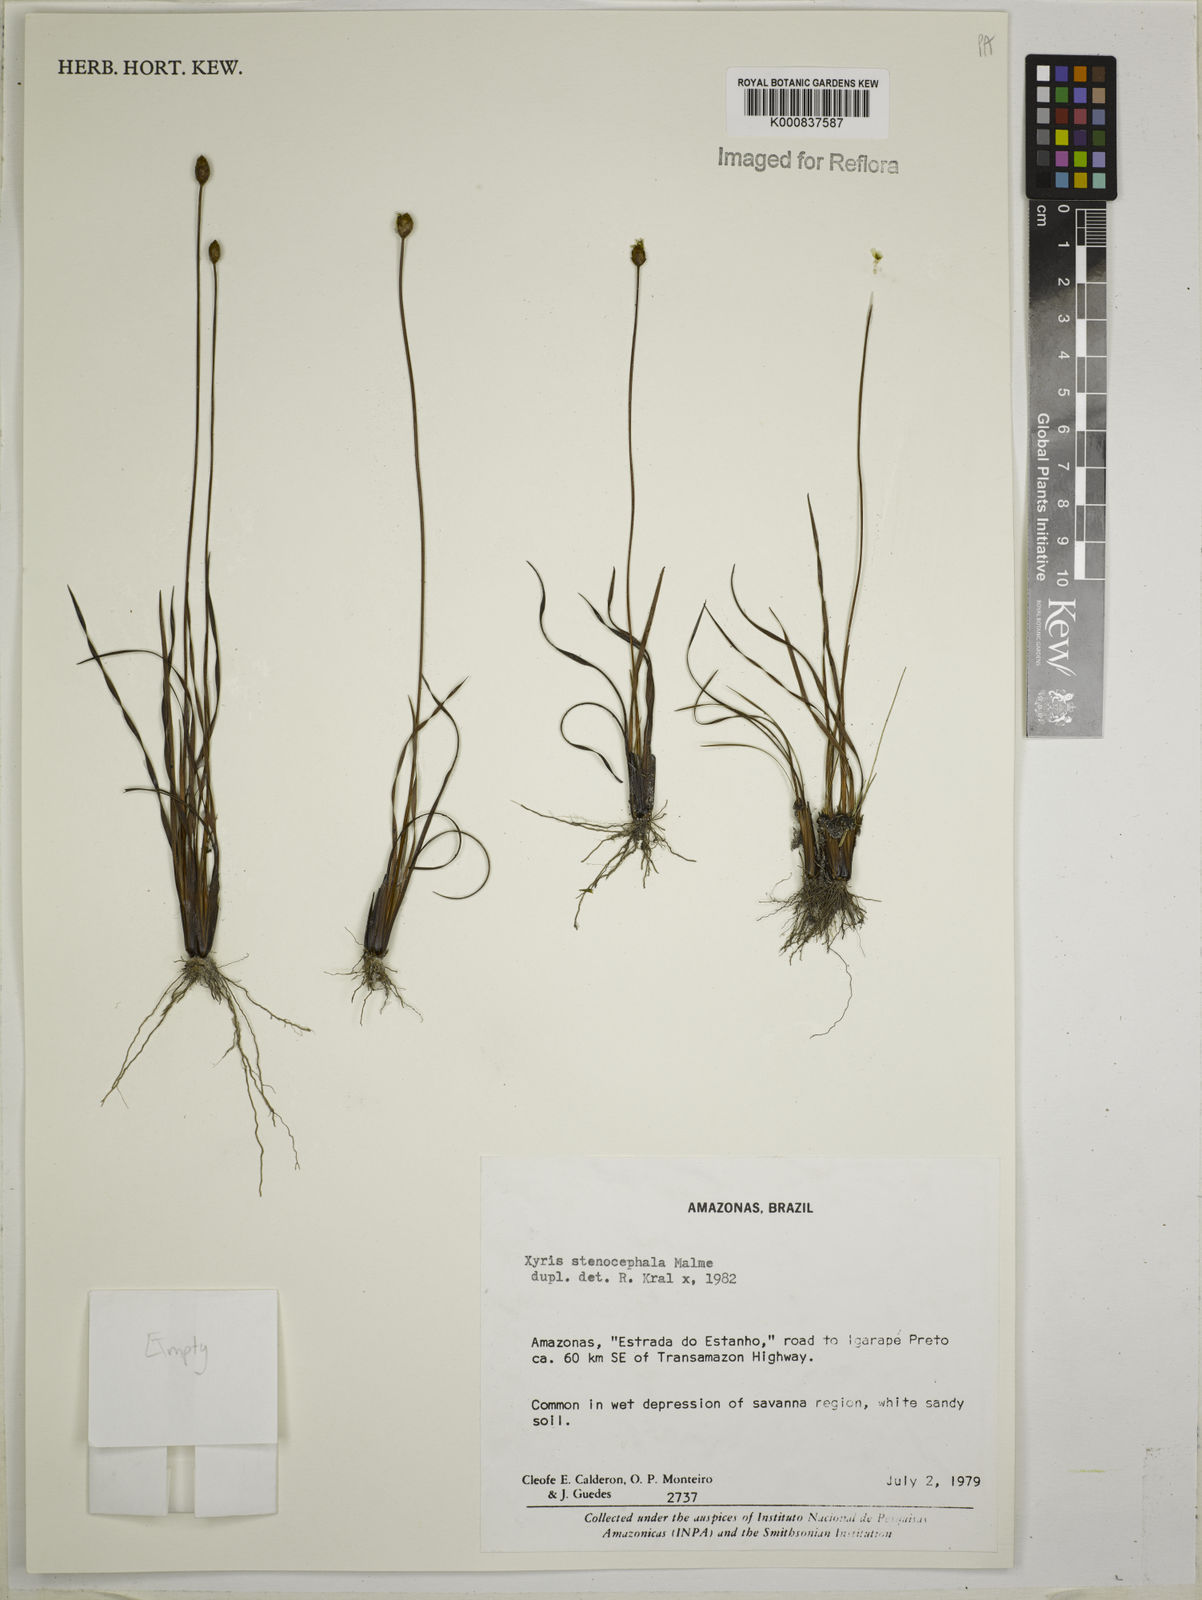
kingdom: Plantae
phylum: Tracheophyta
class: Liliopsida
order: Poales
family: Xyridaceae
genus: Xyris
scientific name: Xyris stenocephala
